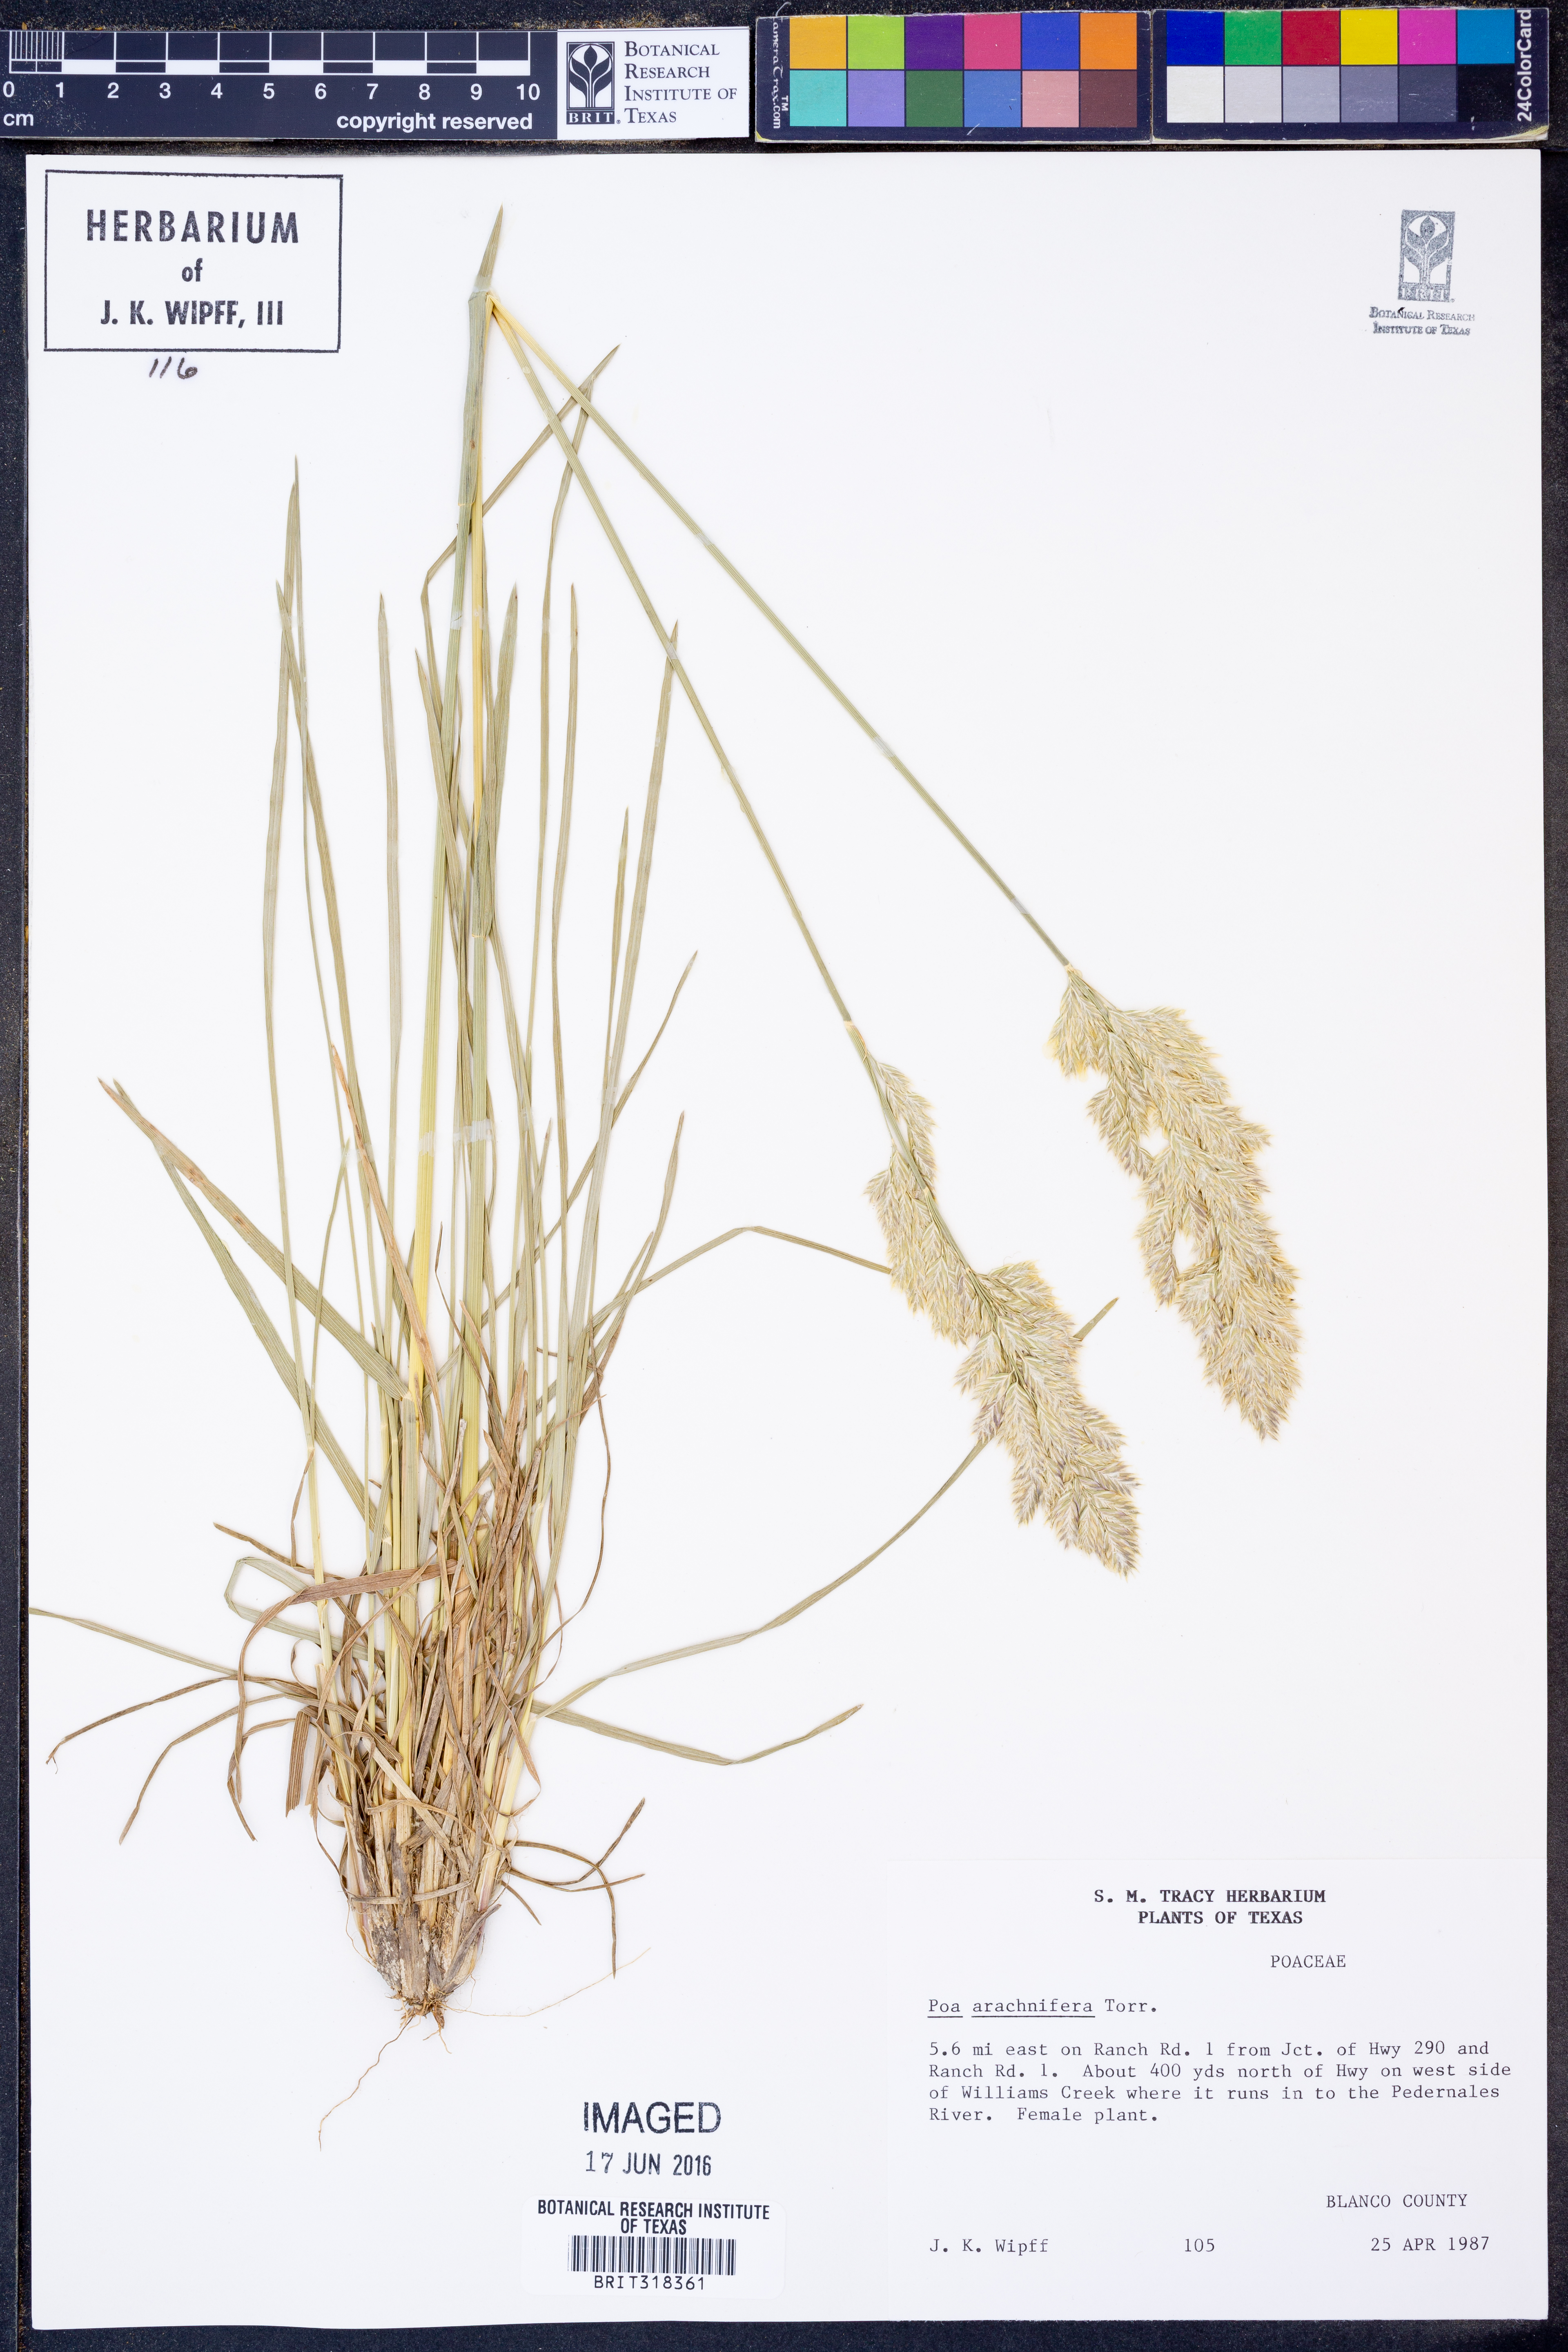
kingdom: Plantae
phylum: Tracheophyta
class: Liliopsida
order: Poales
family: Poaceae
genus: Poa
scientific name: Poa arachnifera
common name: Texas bluegrass
